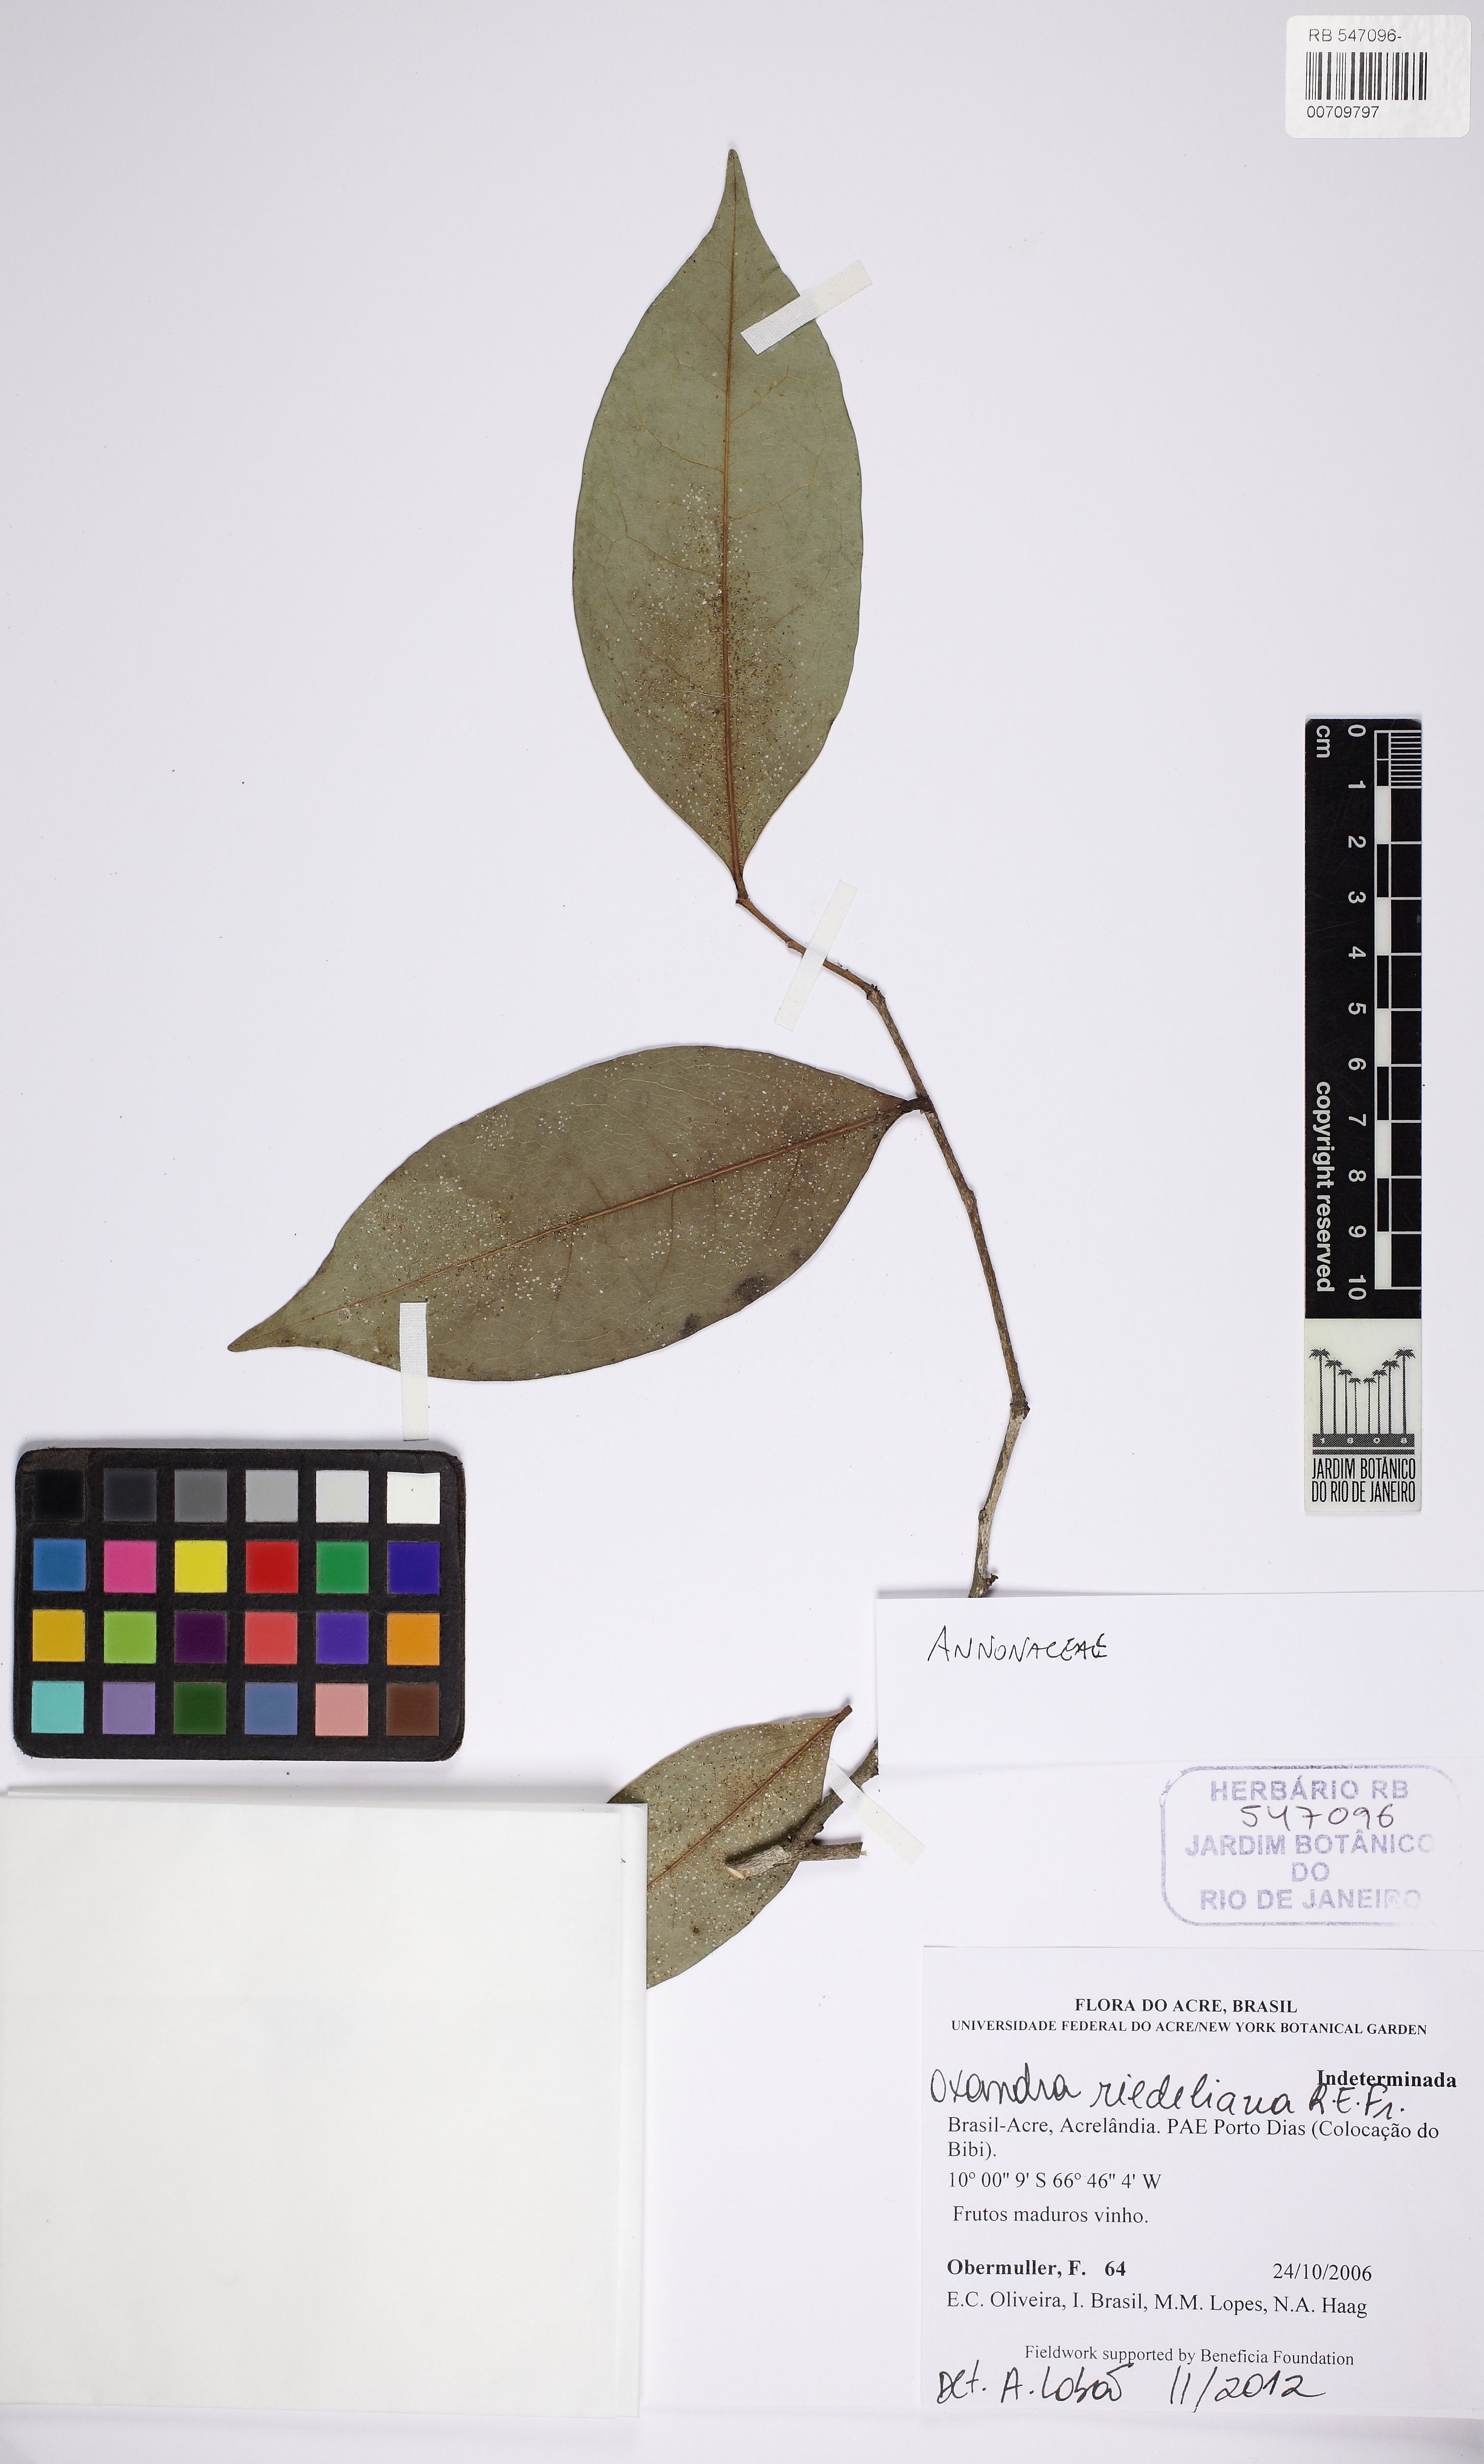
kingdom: Plantae
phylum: Tracheophyta
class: Magnoliopsida
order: Magnoliales
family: Annonaceae
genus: Oxandra
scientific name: Oxandra riedeliana
